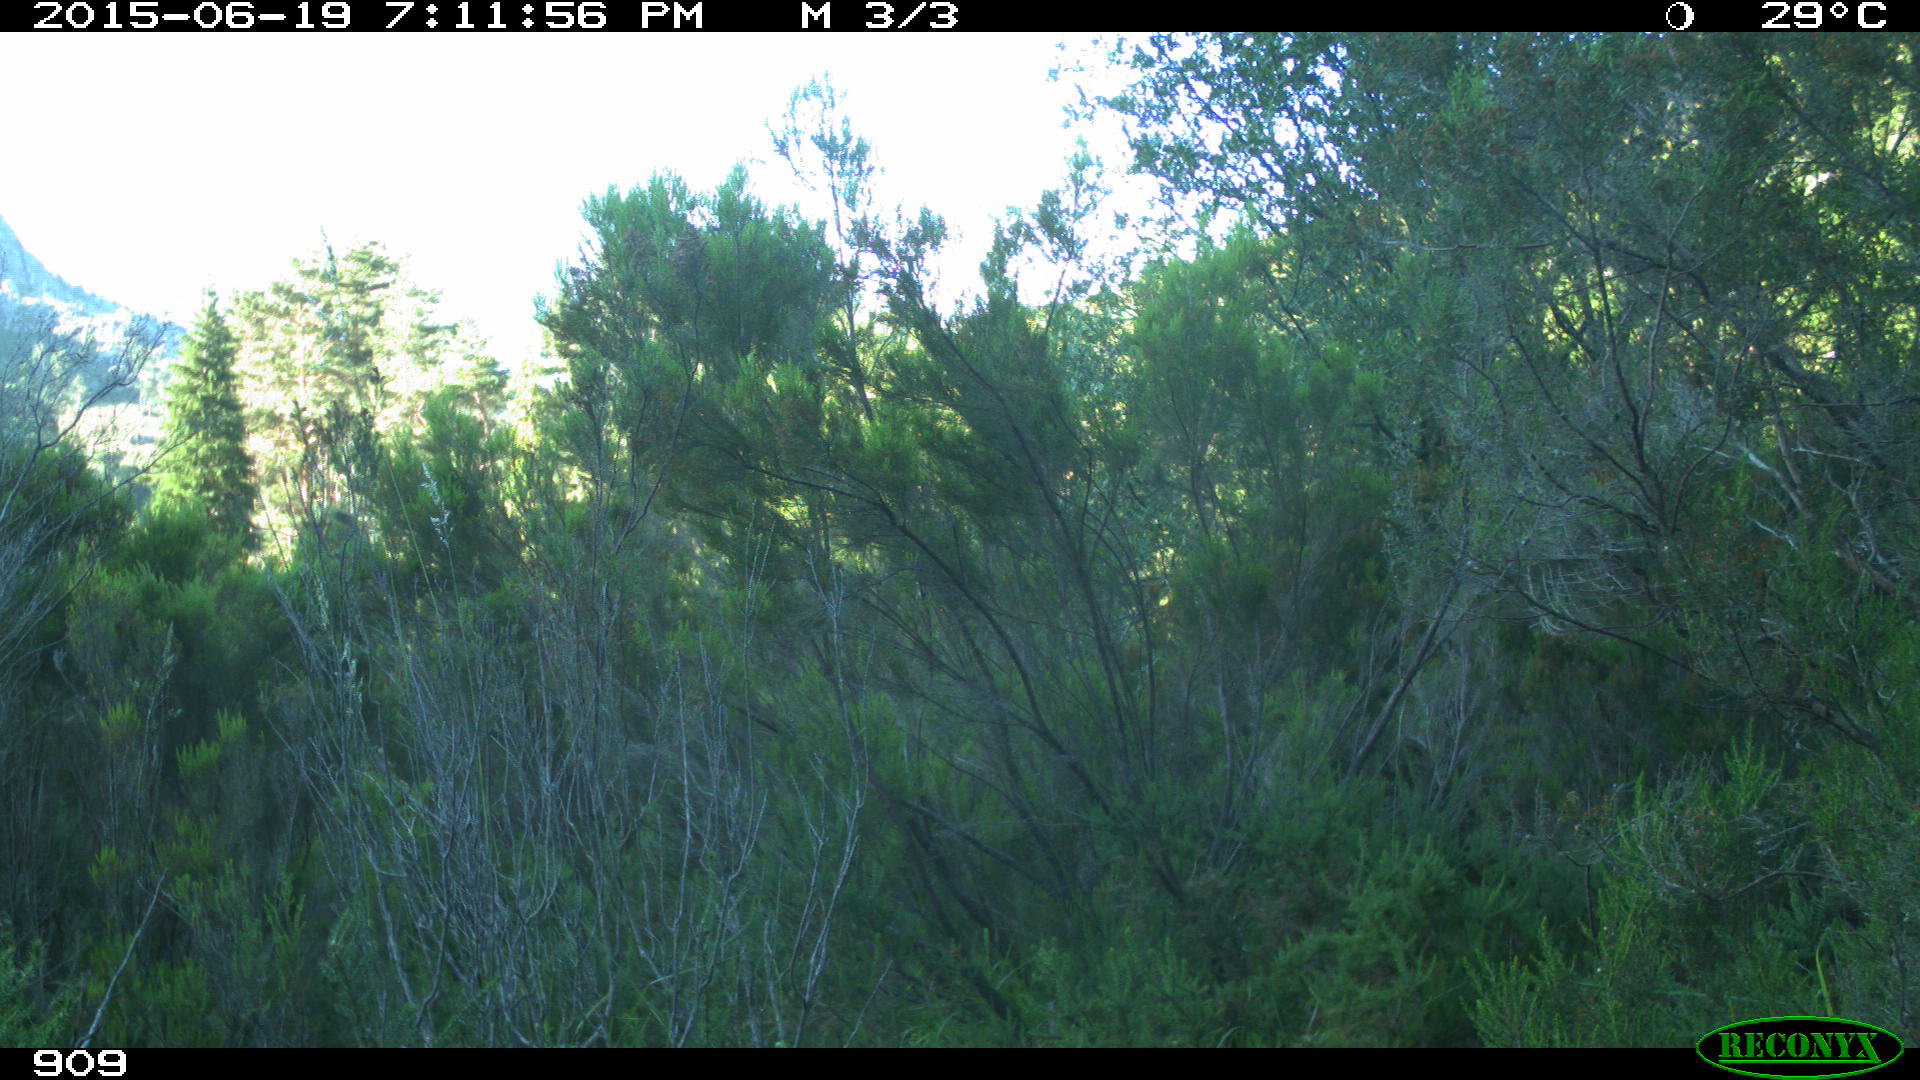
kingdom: Animalia
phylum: Chordata
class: Mammalia
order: Artiodactyla
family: Bovidae
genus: Bos
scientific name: Bos taurus
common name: Domesticated cattle
